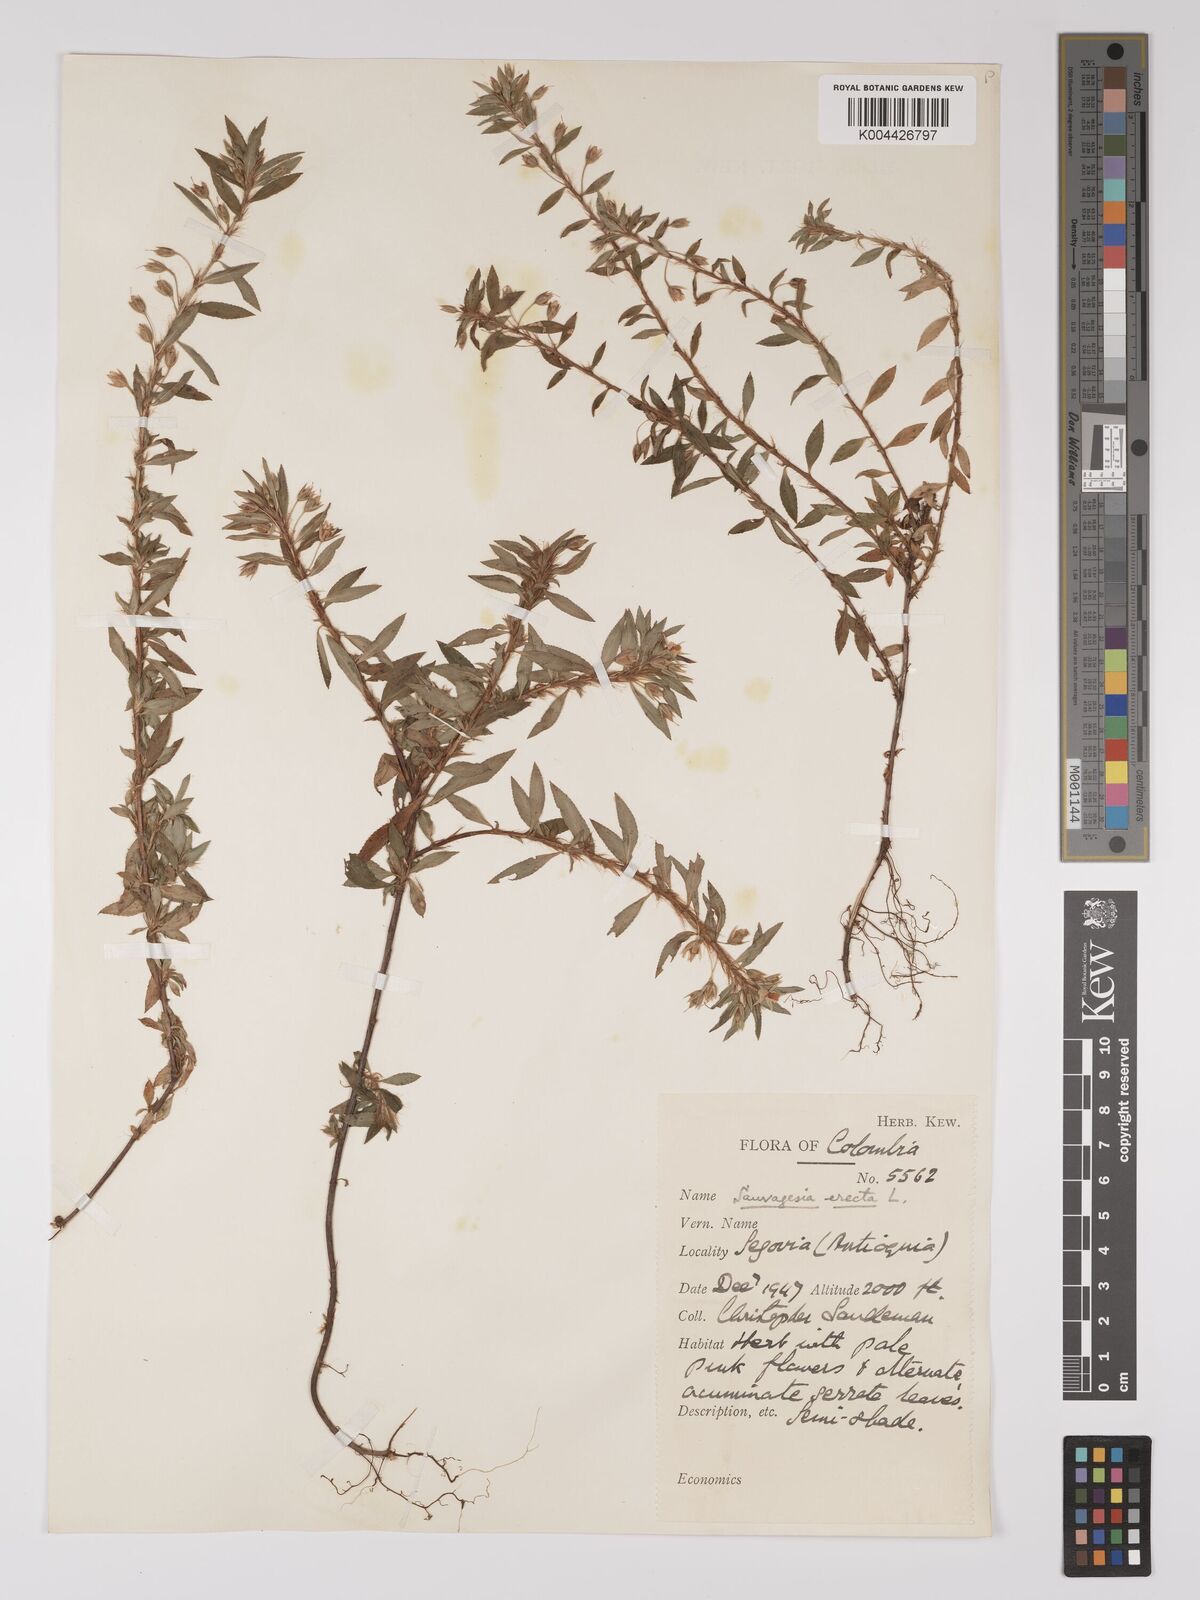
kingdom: Plantae
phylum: Tracheophyta
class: Magnoliopsida
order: Malpighiales
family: Ochnaceae
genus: Sauvagesia
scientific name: Sauvagesia erecta
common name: Creole tea
